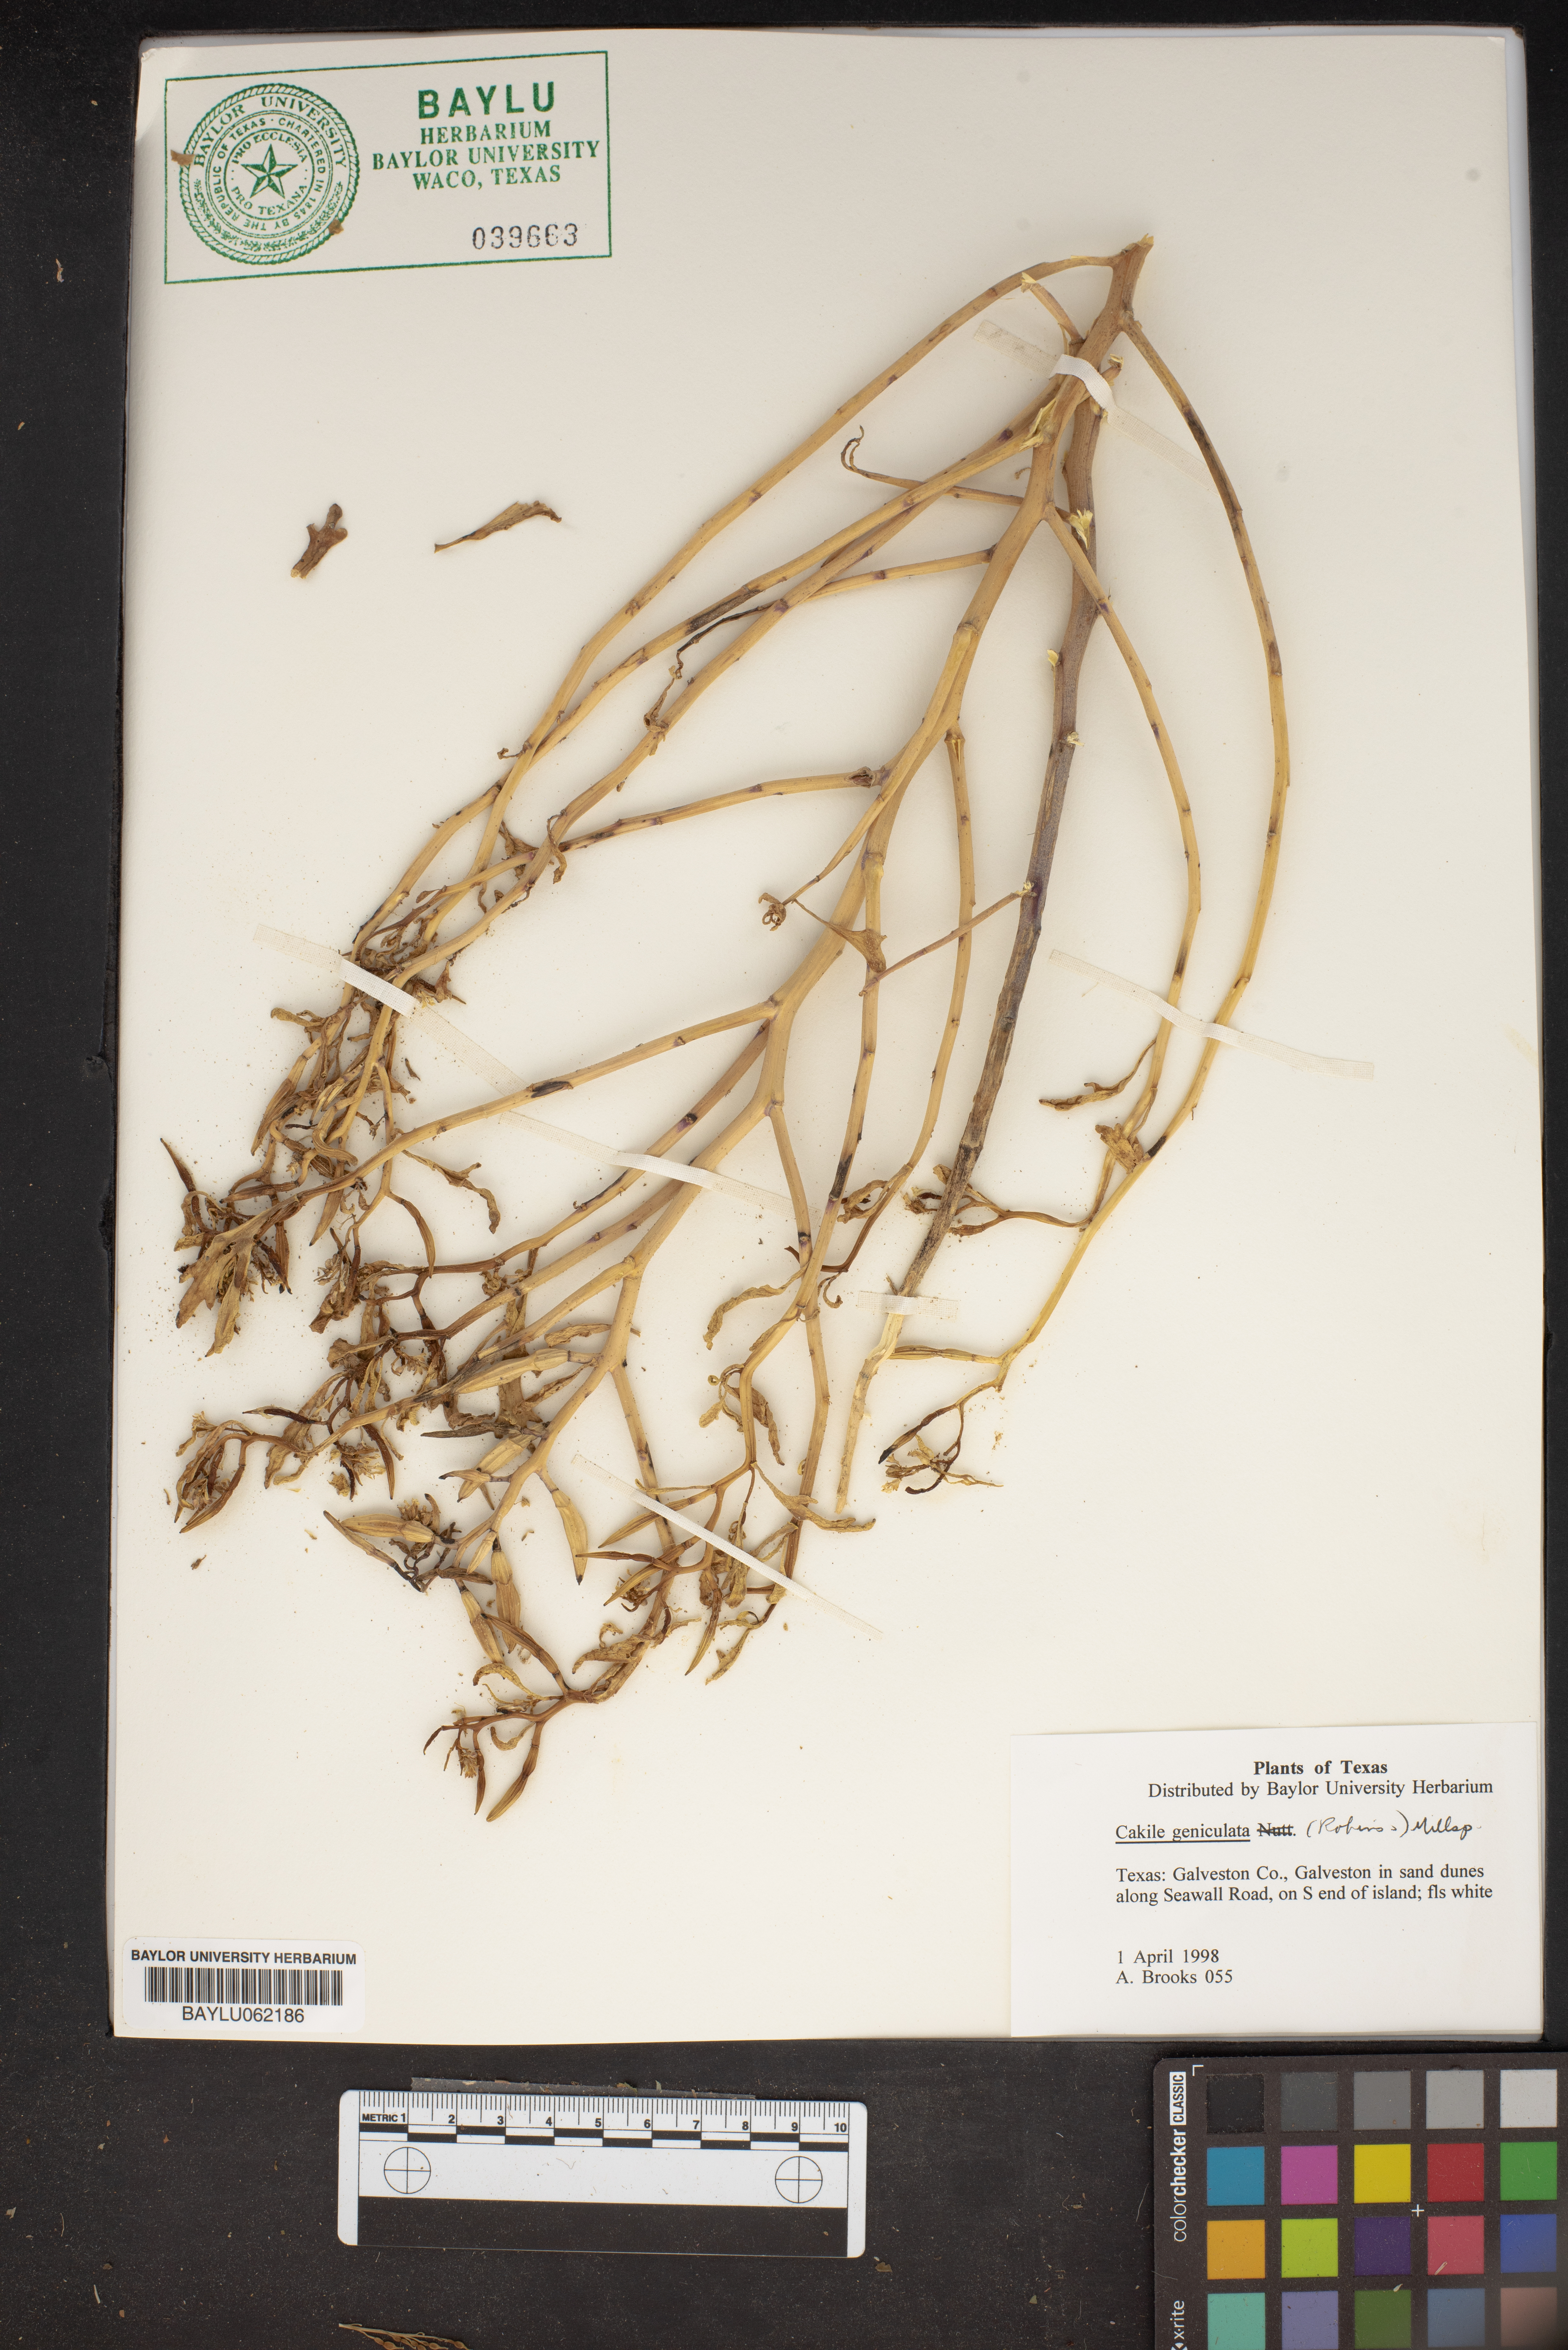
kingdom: Plantae
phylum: Tracheophyta
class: Magnoliopsida
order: Brassicales
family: Brassicaceae
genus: Cakile
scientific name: Cakile geniculata
